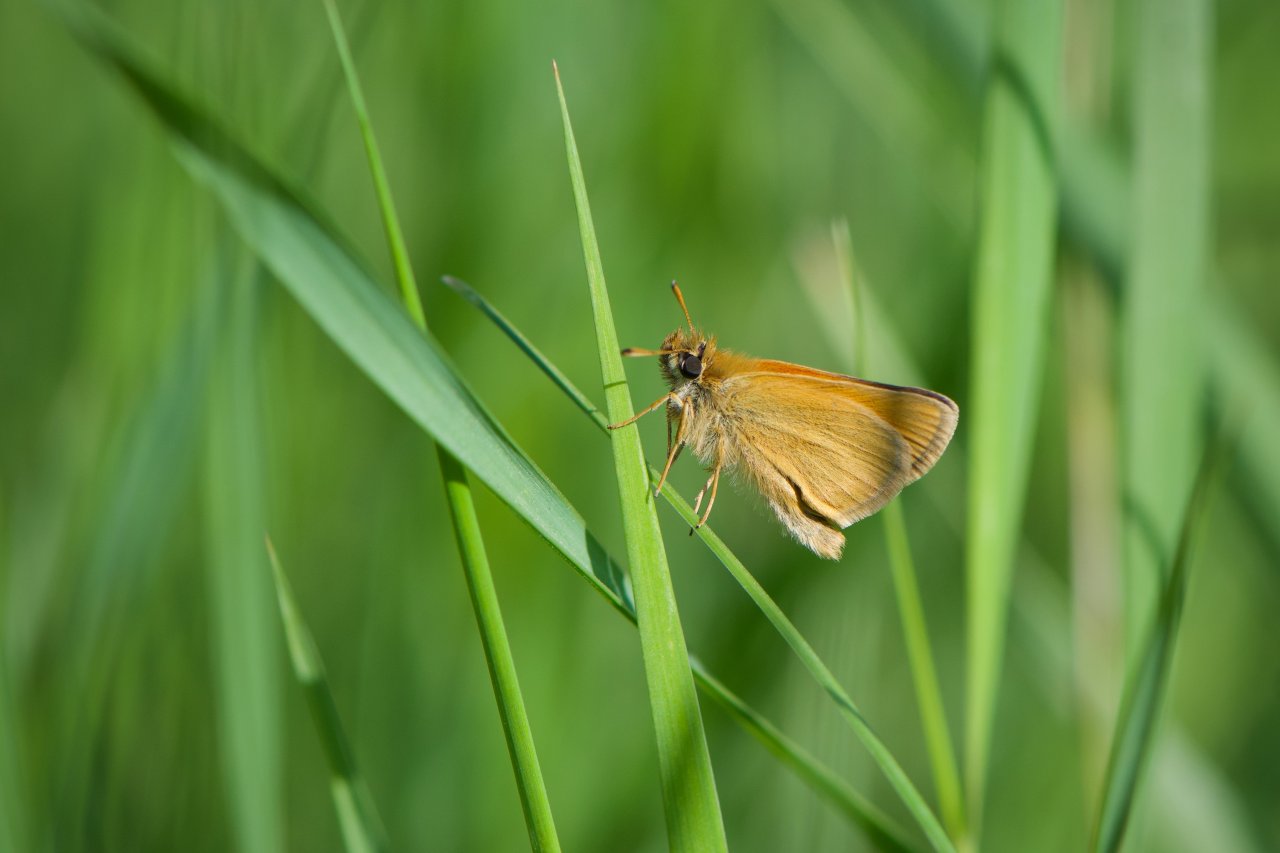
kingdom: Animalia
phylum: Arthropoda
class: Insecta
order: Lepidoptera
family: Hesperiidae
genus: Thymelicus
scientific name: Thymelicus lineola
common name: European Skipper
